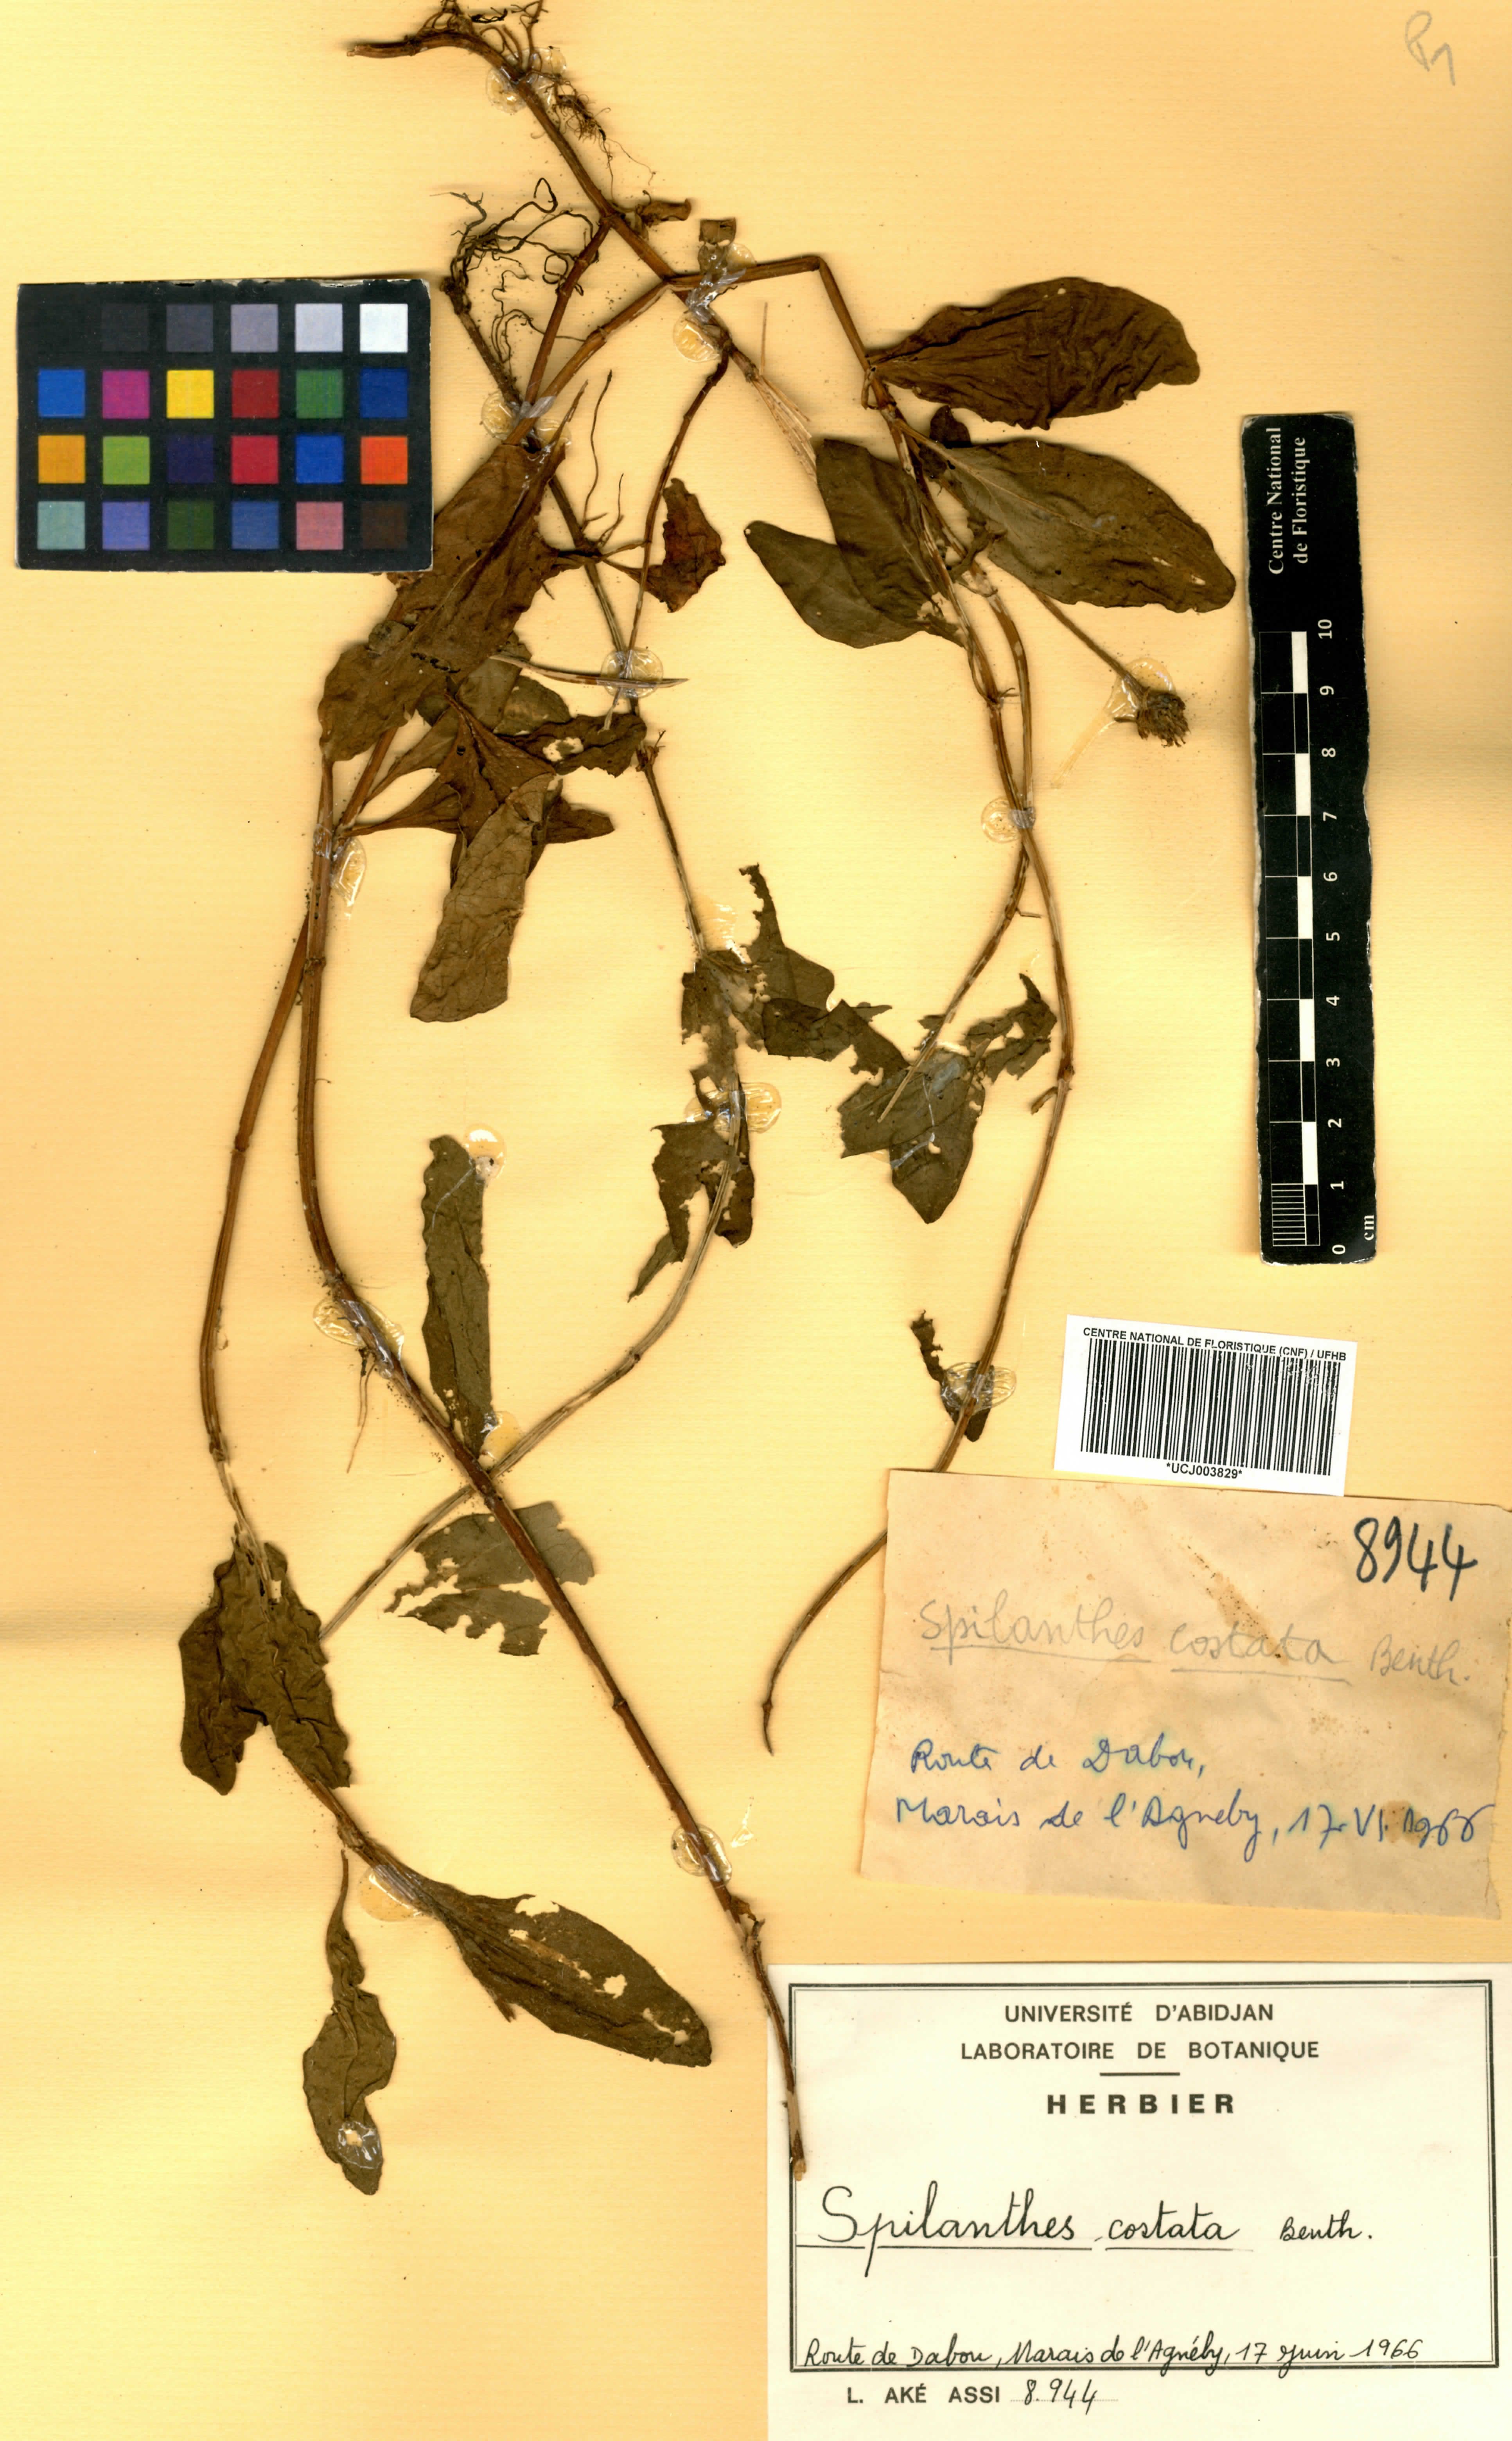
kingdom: Plantae
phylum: Tracheophyta
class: Magnoliopsida
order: Asterales
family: Asteraceae
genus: Spilanthes
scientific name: Spilanthes costata
